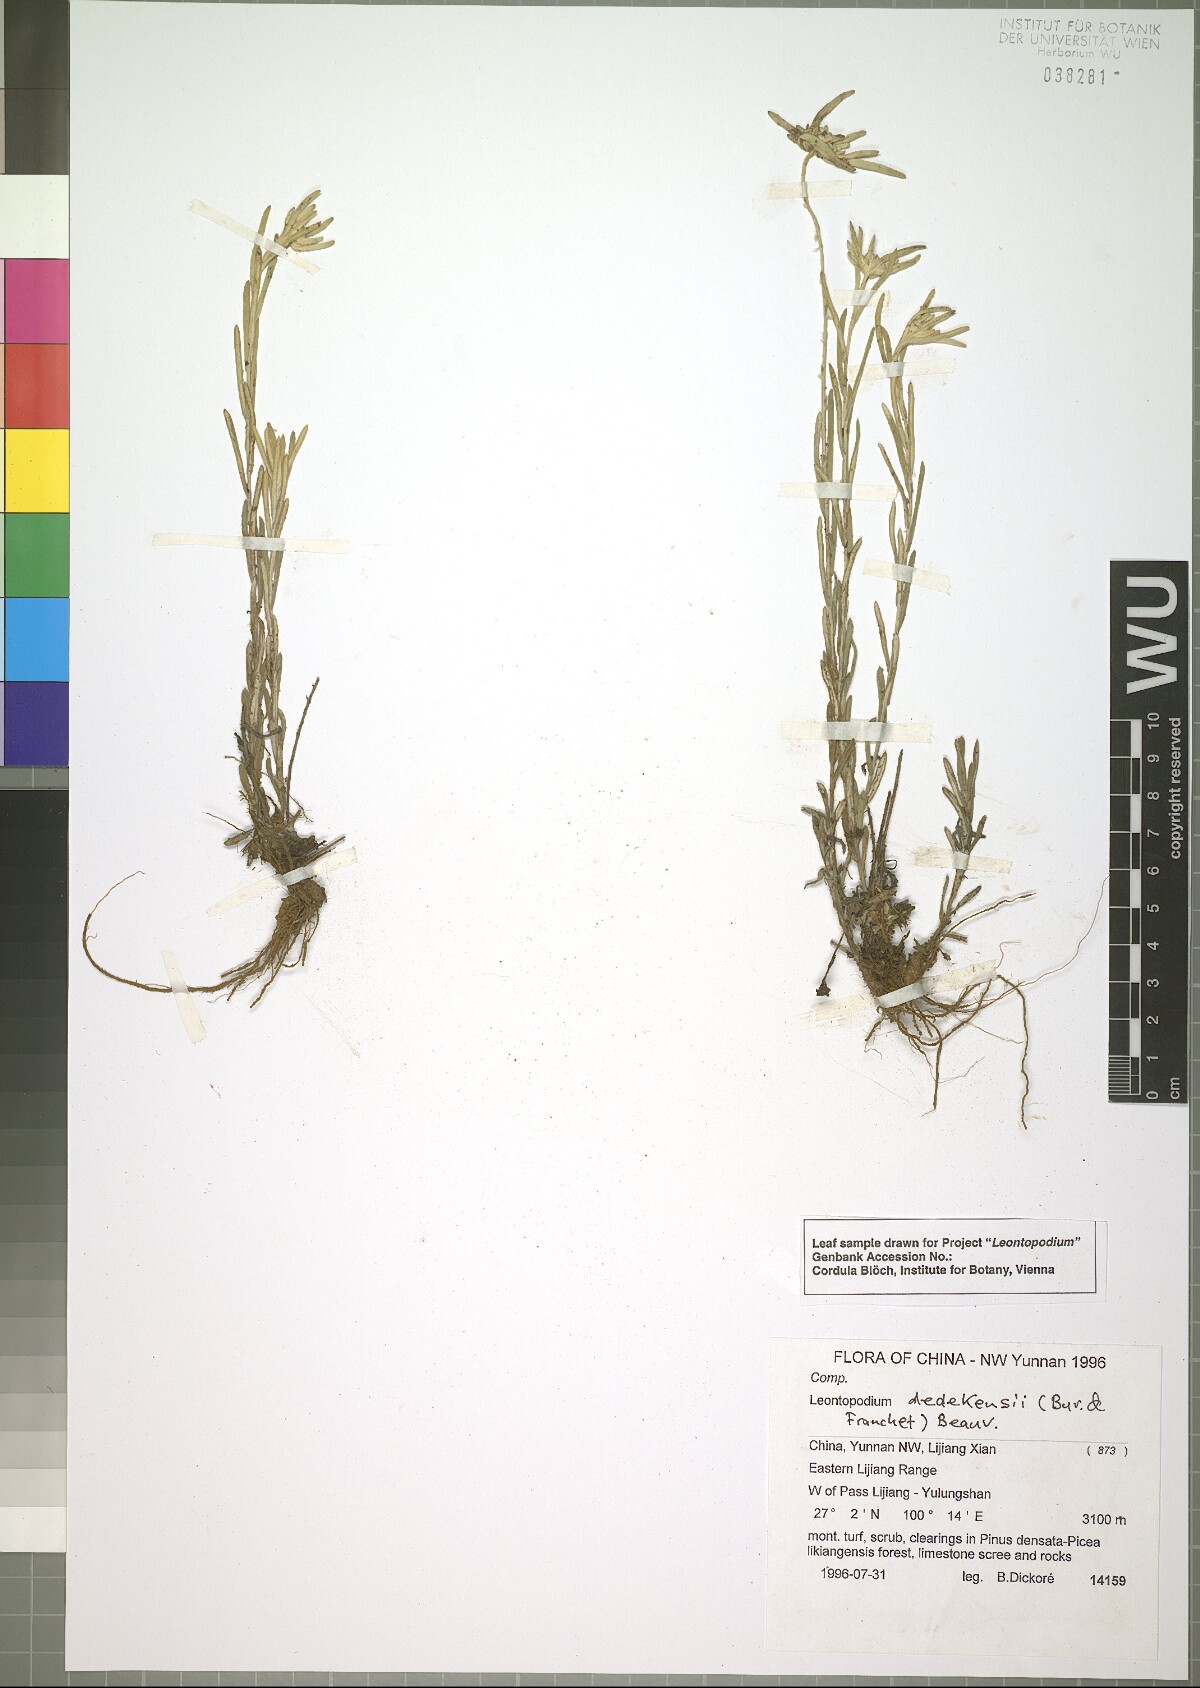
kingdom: Plantae
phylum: Tracheophyta
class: Magnoliopsida
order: Asterales
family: Asteraceae
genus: Leontopodium
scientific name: Leontopodium dedekensii
